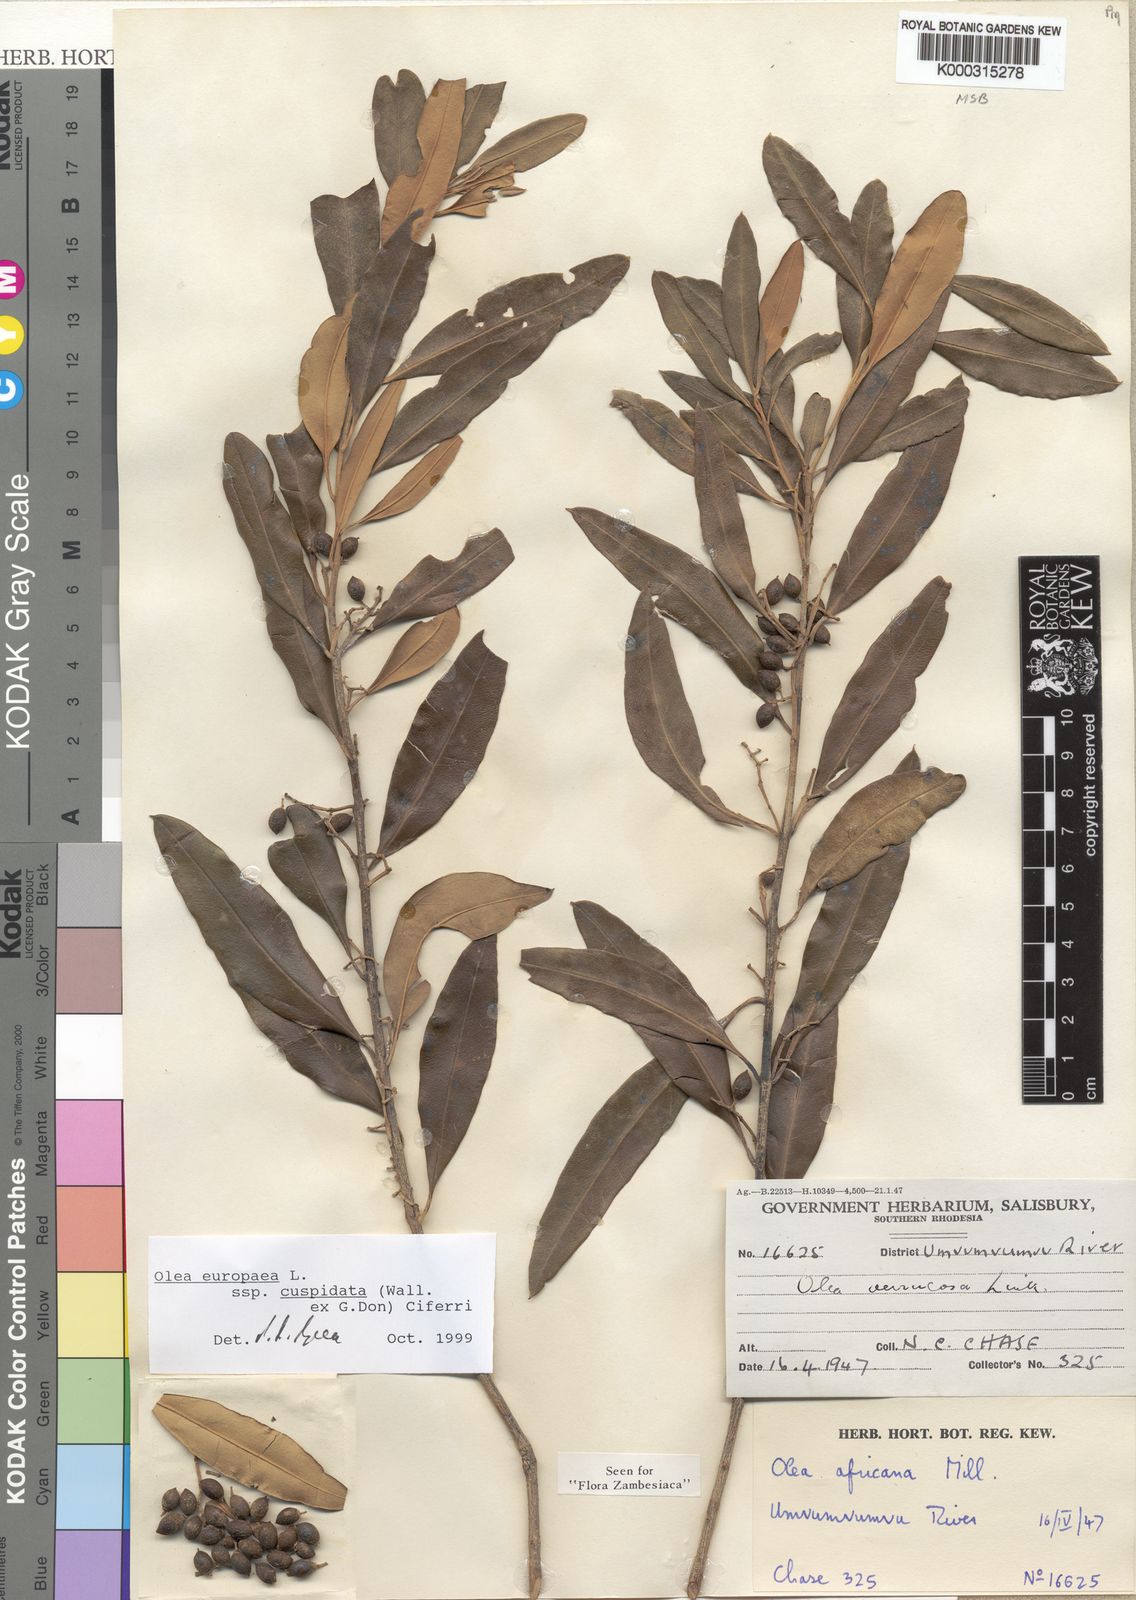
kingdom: Plantae
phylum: Tracheophyta
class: Magnoliopsida
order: Lamiales
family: Oleaceae
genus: Olea
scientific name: Olea europaea
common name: Olive
